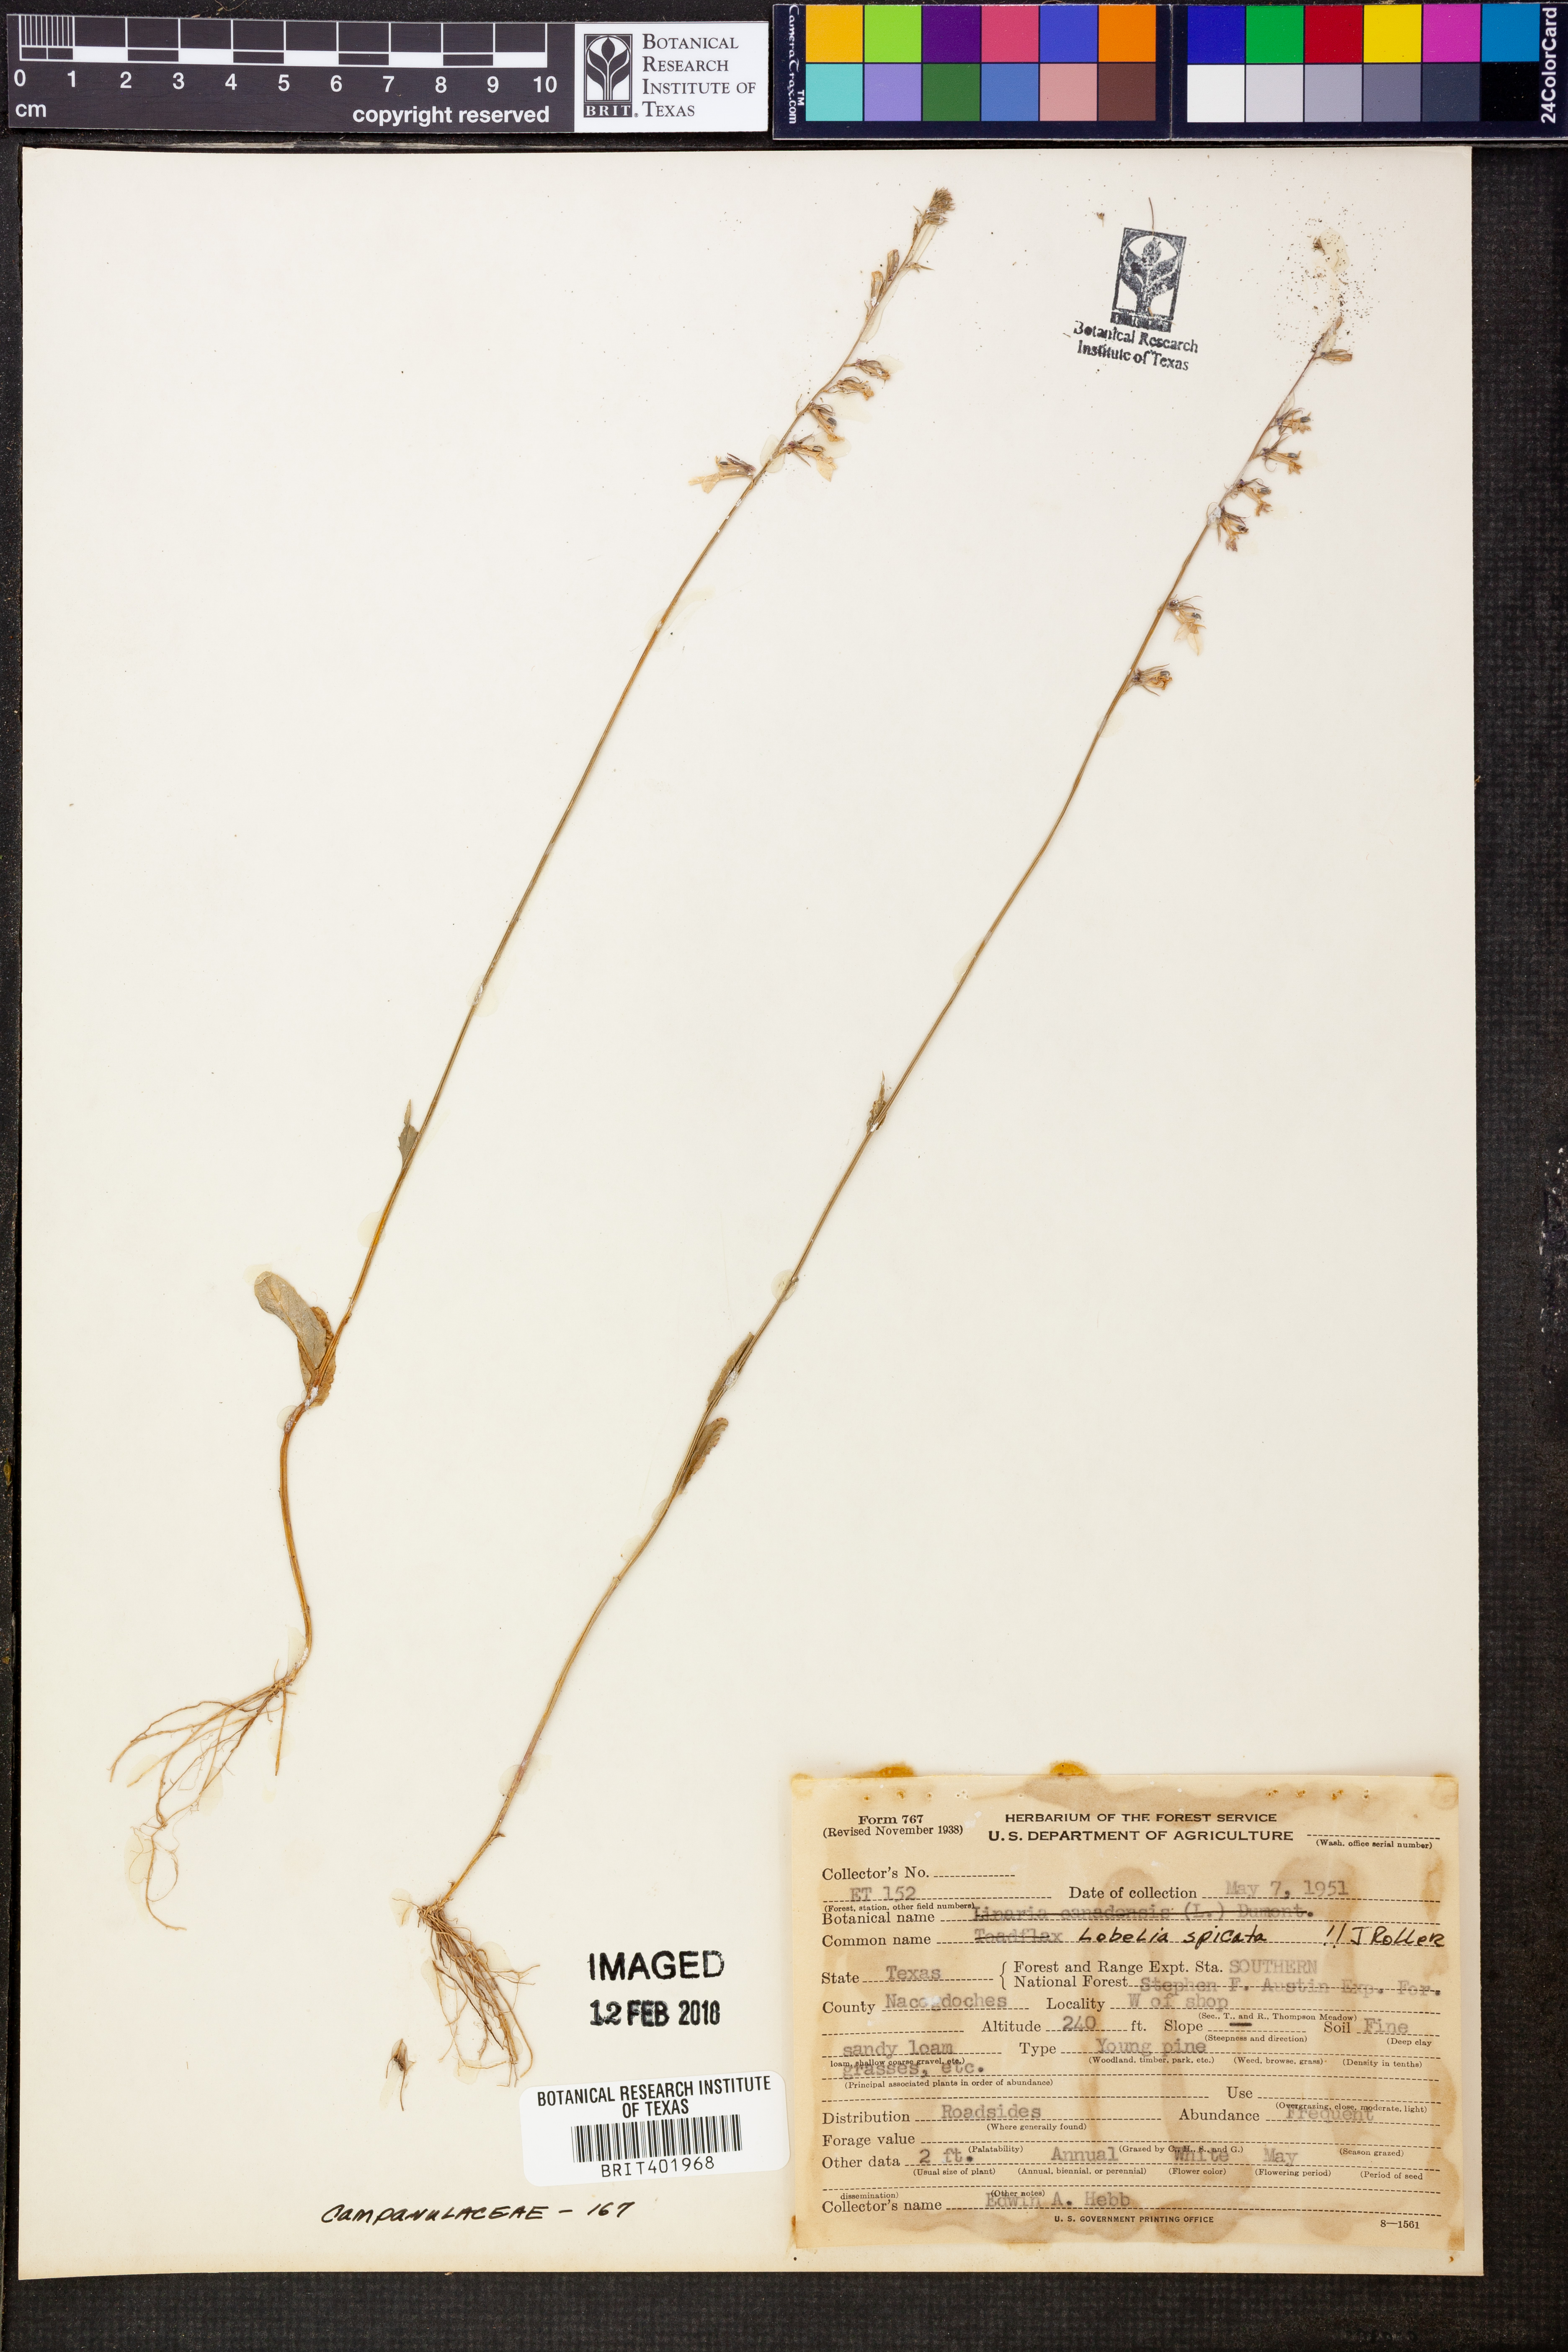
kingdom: Plantae
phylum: Tracheophyta
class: Magnoliopsida
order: Asterales
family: Campanulaceae
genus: Lobelia
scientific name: Lobelia spicata
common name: Pale-spike lobelia
